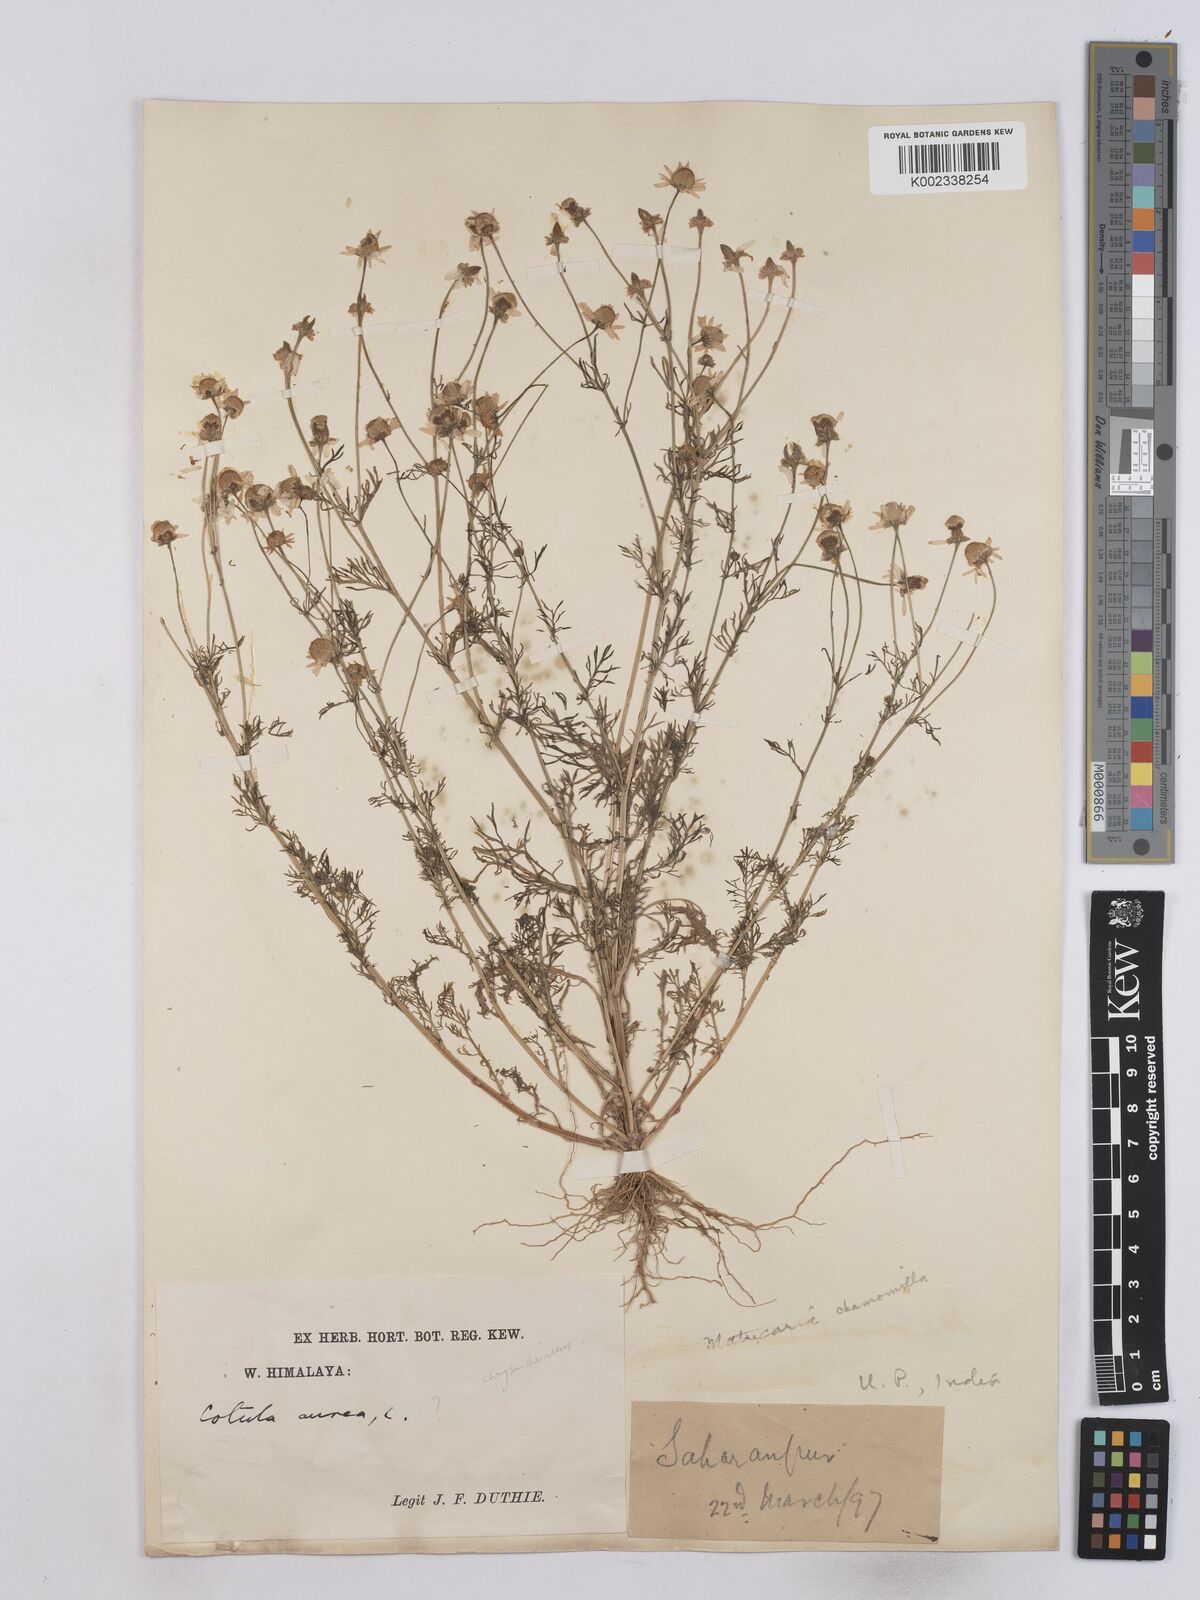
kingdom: Plantae
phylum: Tracheophyta
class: Magnoliopsida
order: Asterales
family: Asteraceae
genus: Matricaria
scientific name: Matricaria chamomilla
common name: Scented mayweed
